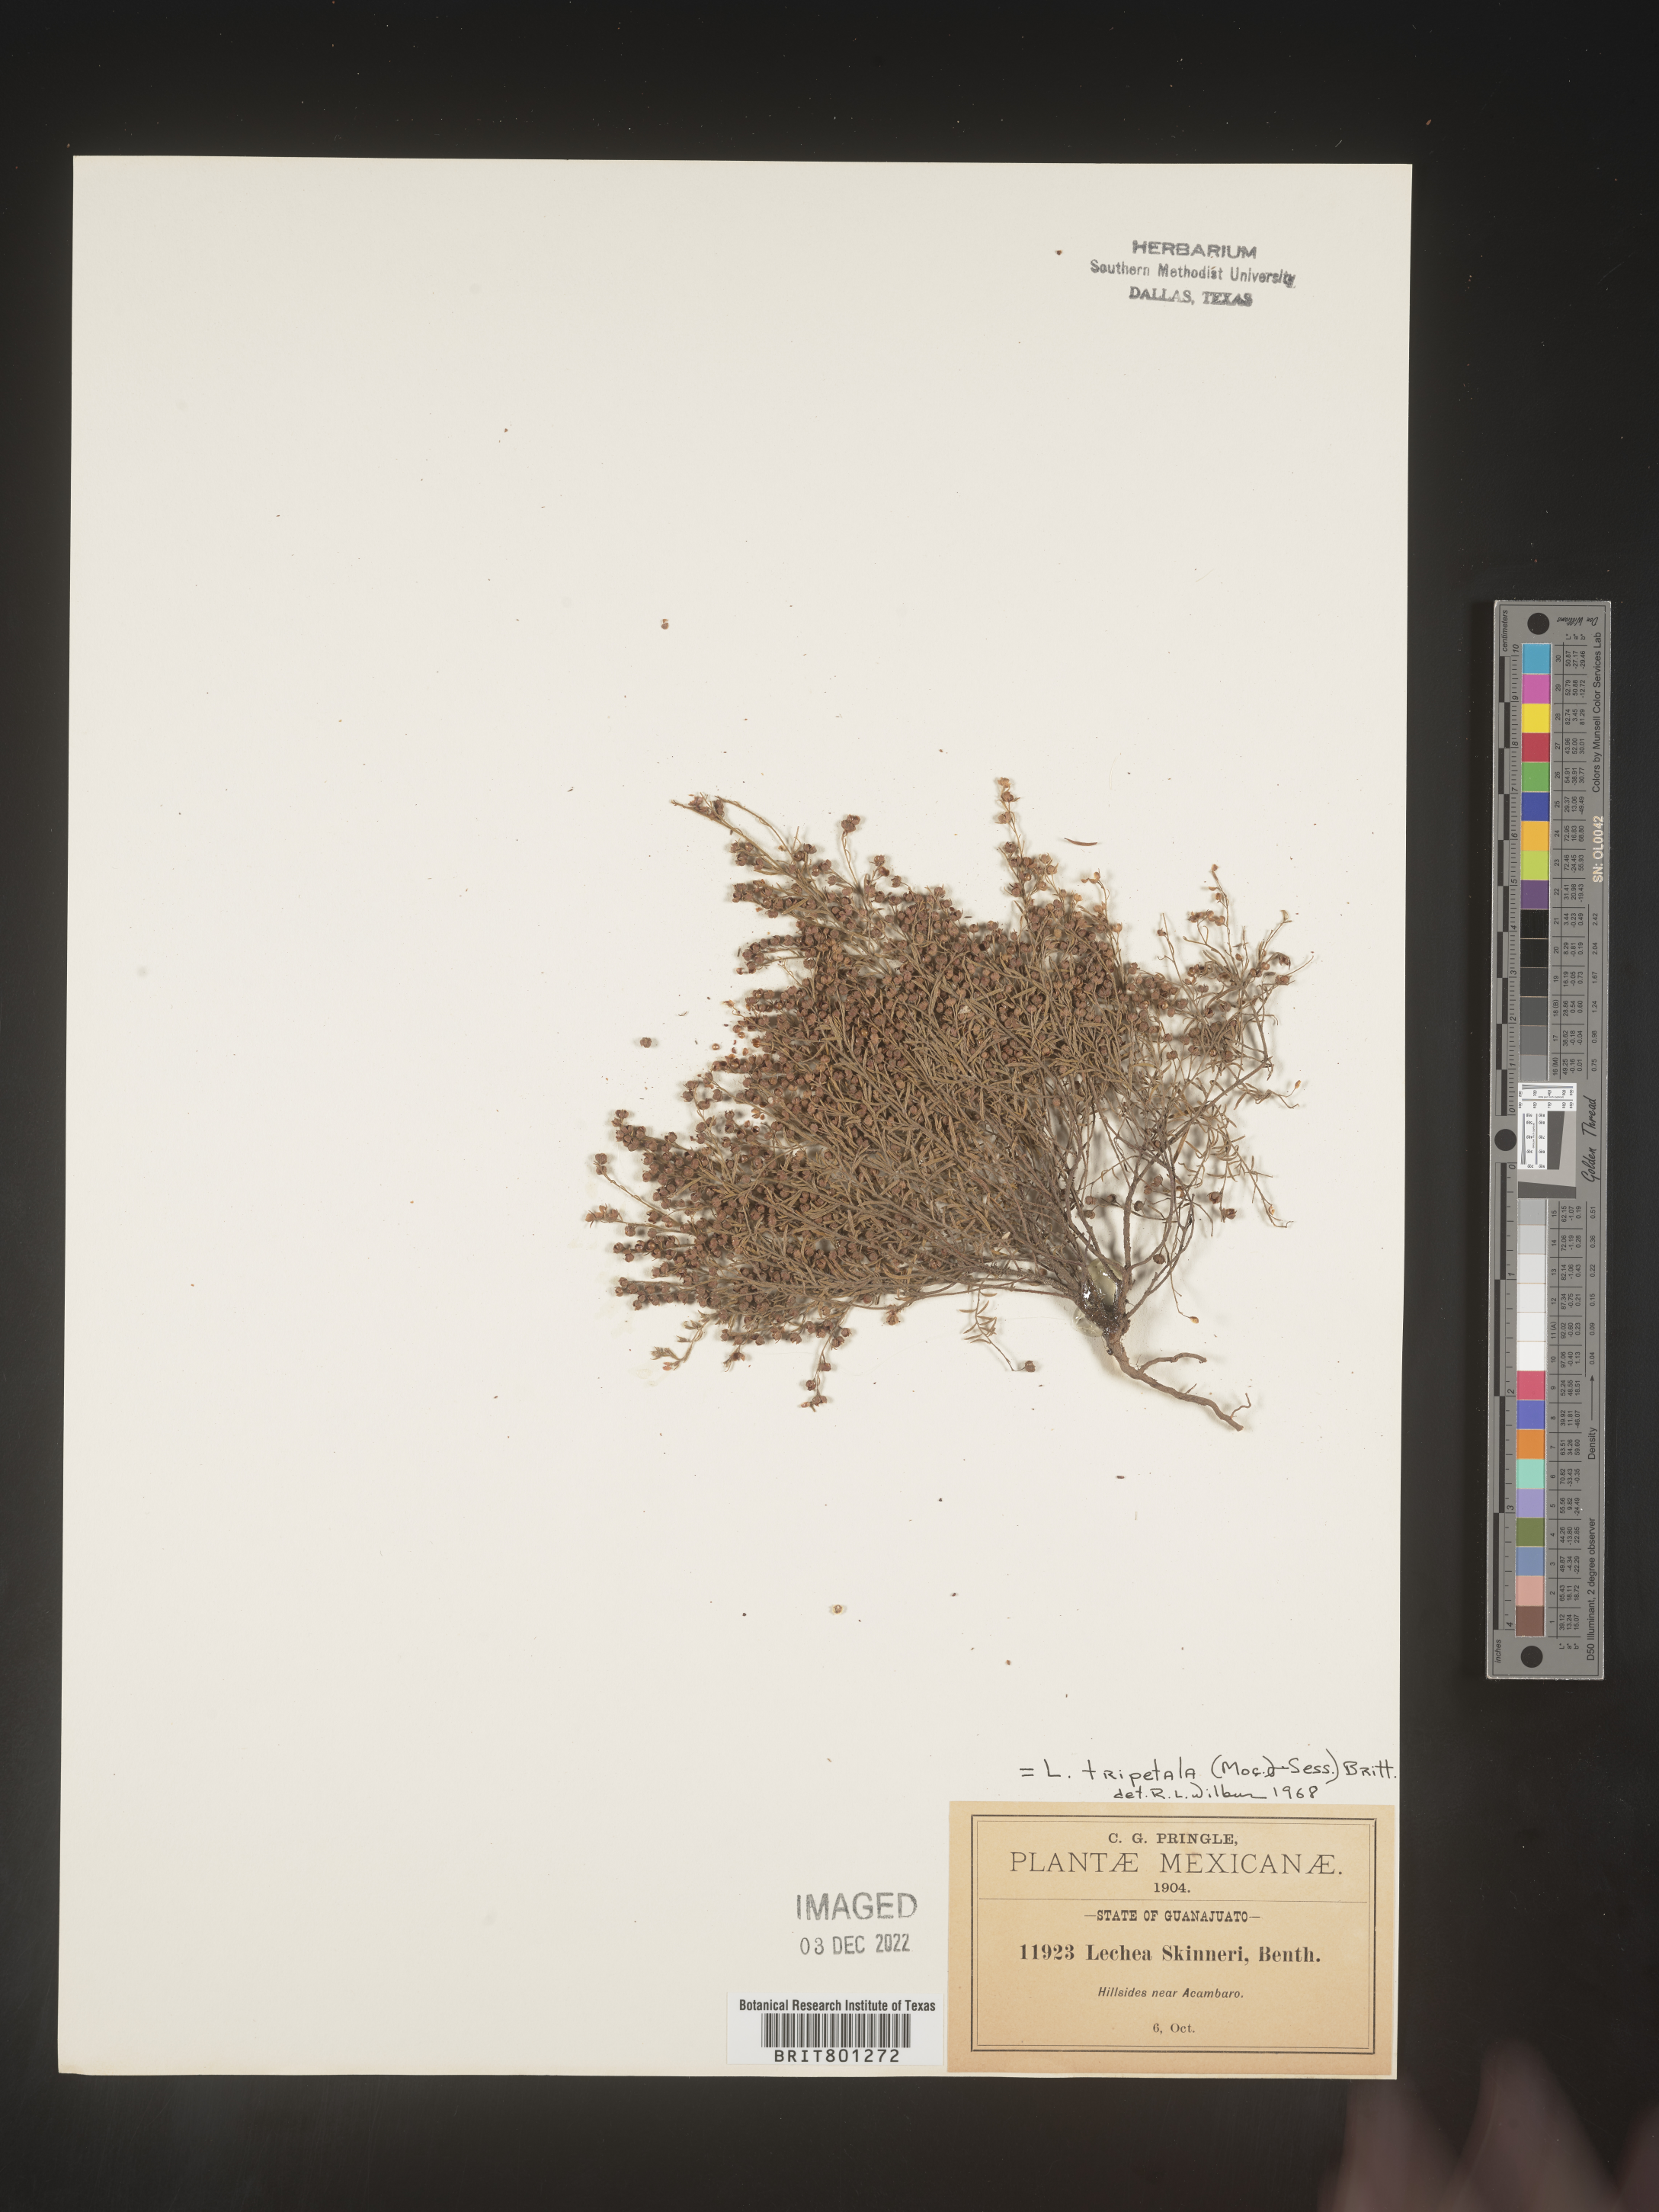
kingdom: Plantae
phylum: Tracheophyta
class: Magnoliopsida
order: Malvales
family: Cistaceae
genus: Lechea
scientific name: Lechea
